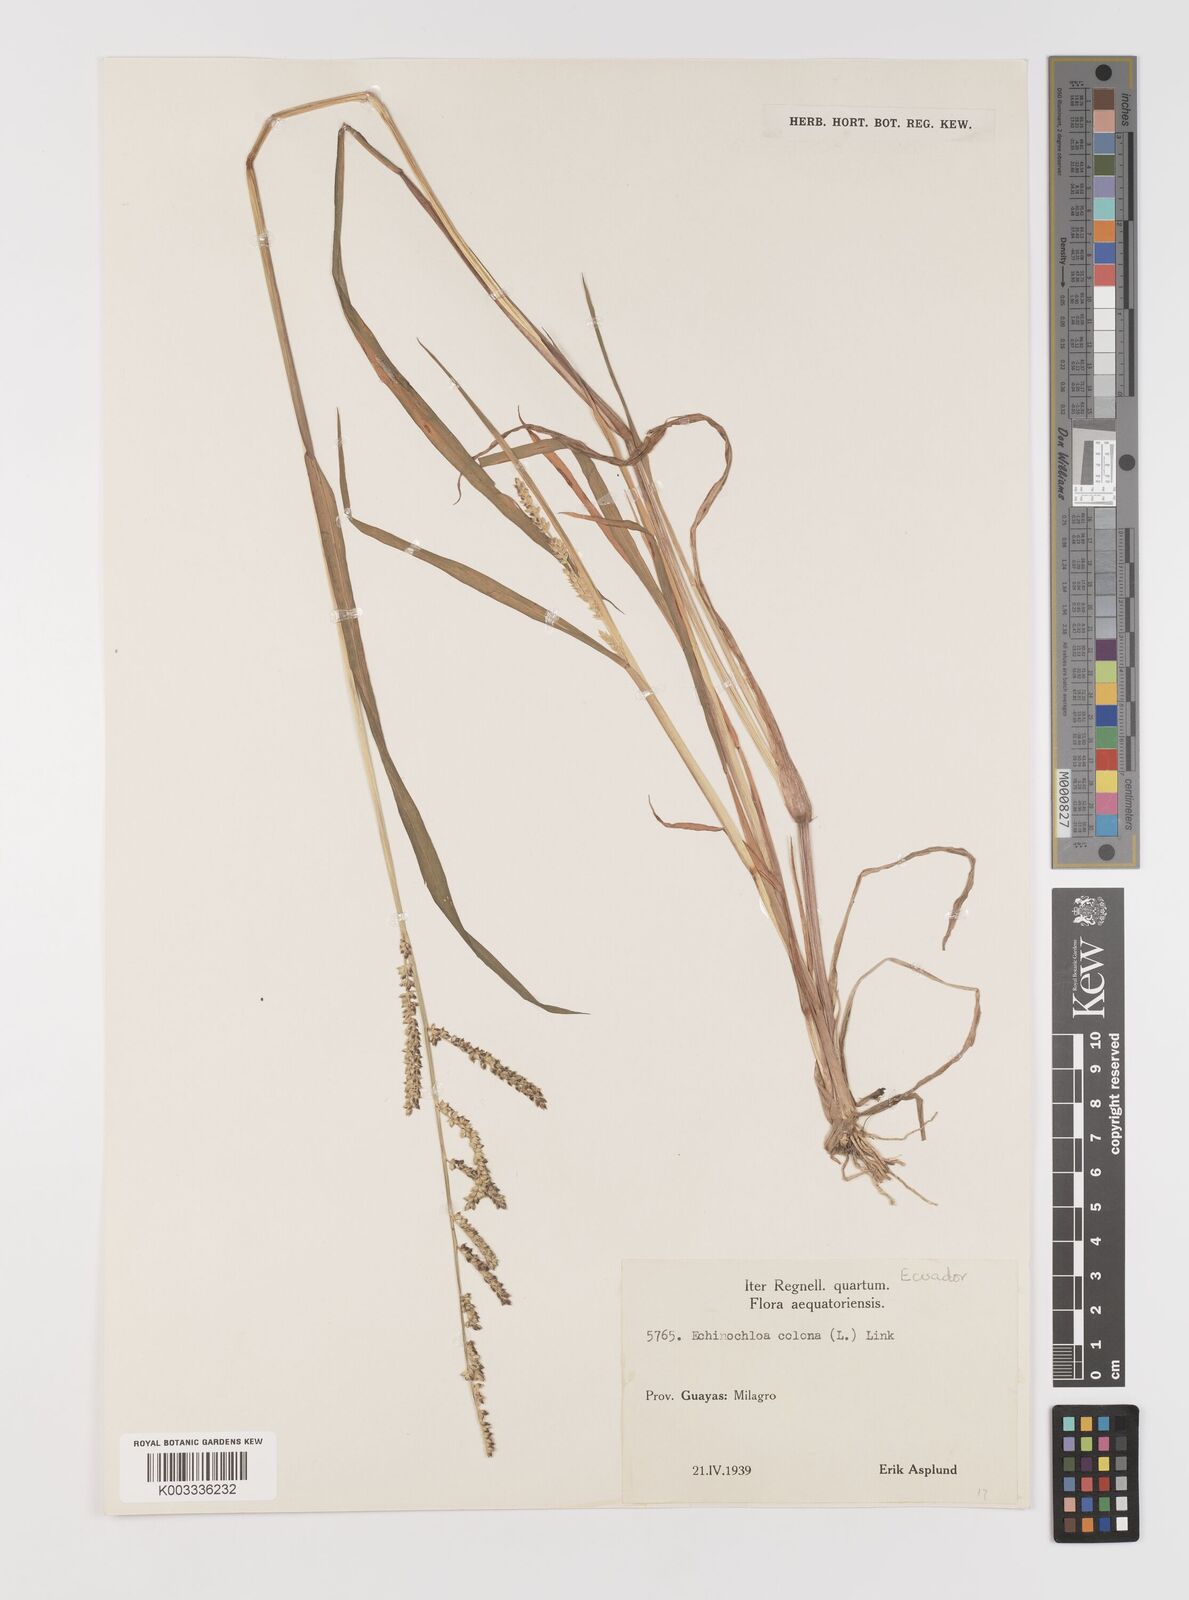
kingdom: Plantae
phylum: Tracheophyta
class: Liliopsida
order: Poales
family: Poaceae
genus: Echinochloa
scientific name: Echinochloa colonum
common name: Jungle rice
